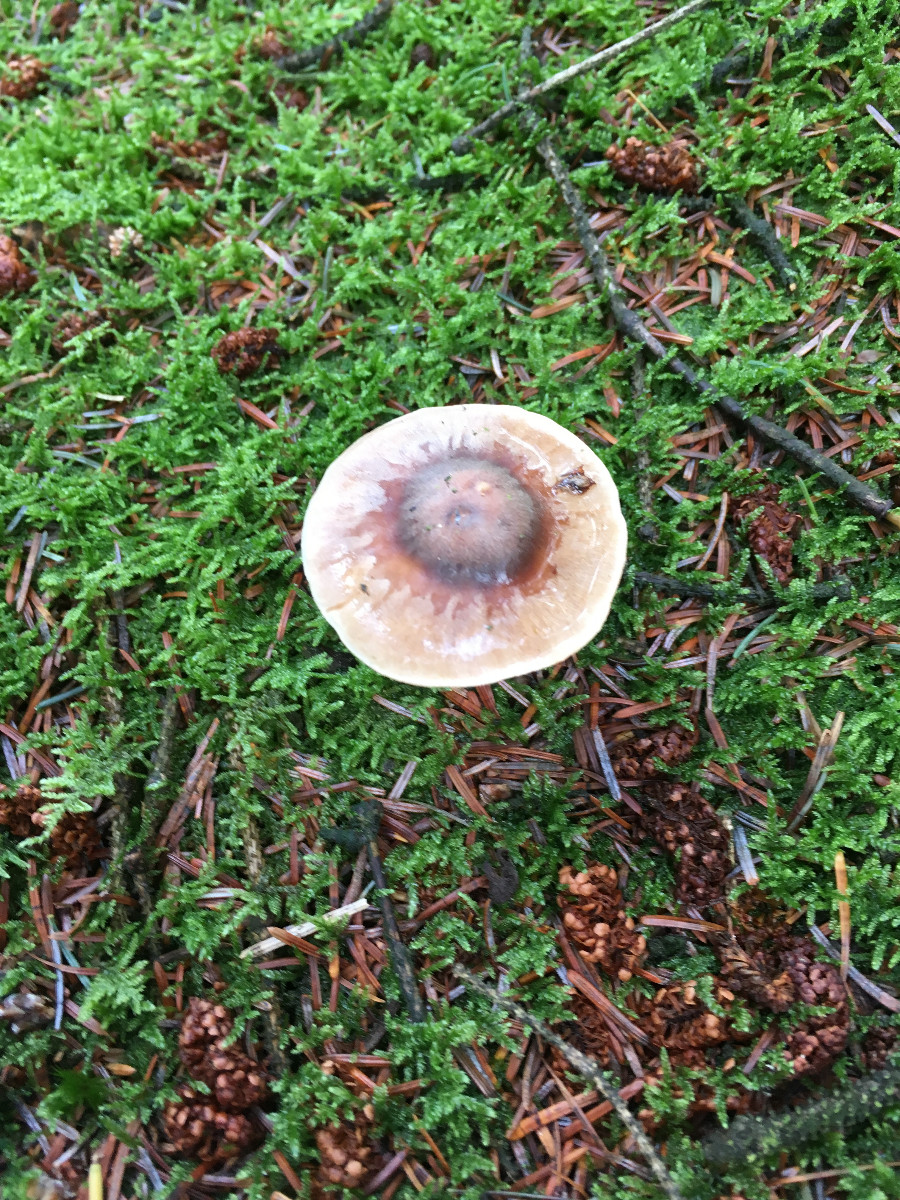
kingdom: Fungi
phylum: Basidiomycota
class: Agaricomycetes
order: Agaricales
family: Hymenogastraceae
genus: Hebeloma
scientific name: Hebeloma
